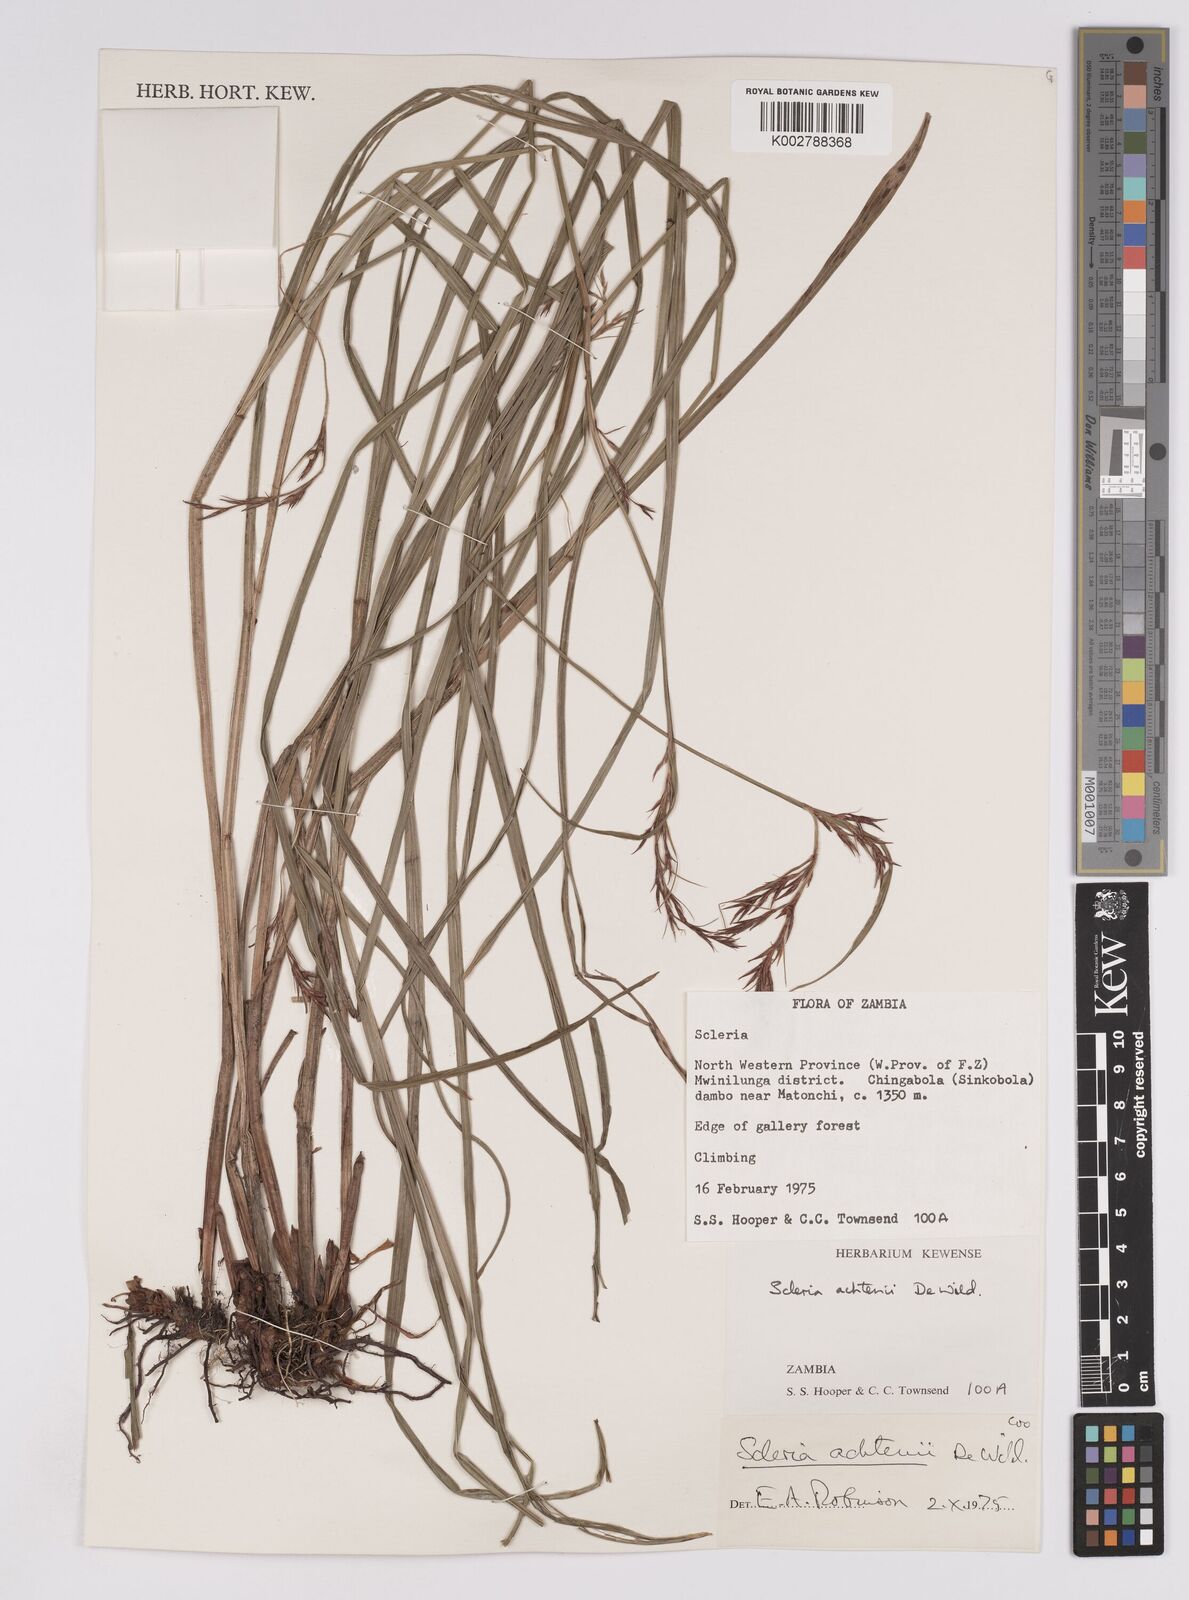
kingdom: Plantae
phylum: Tracheophyta
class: Liliopsida
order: Poales
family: Cyperaceae
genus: Scleria
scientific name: Scleria achtenii
